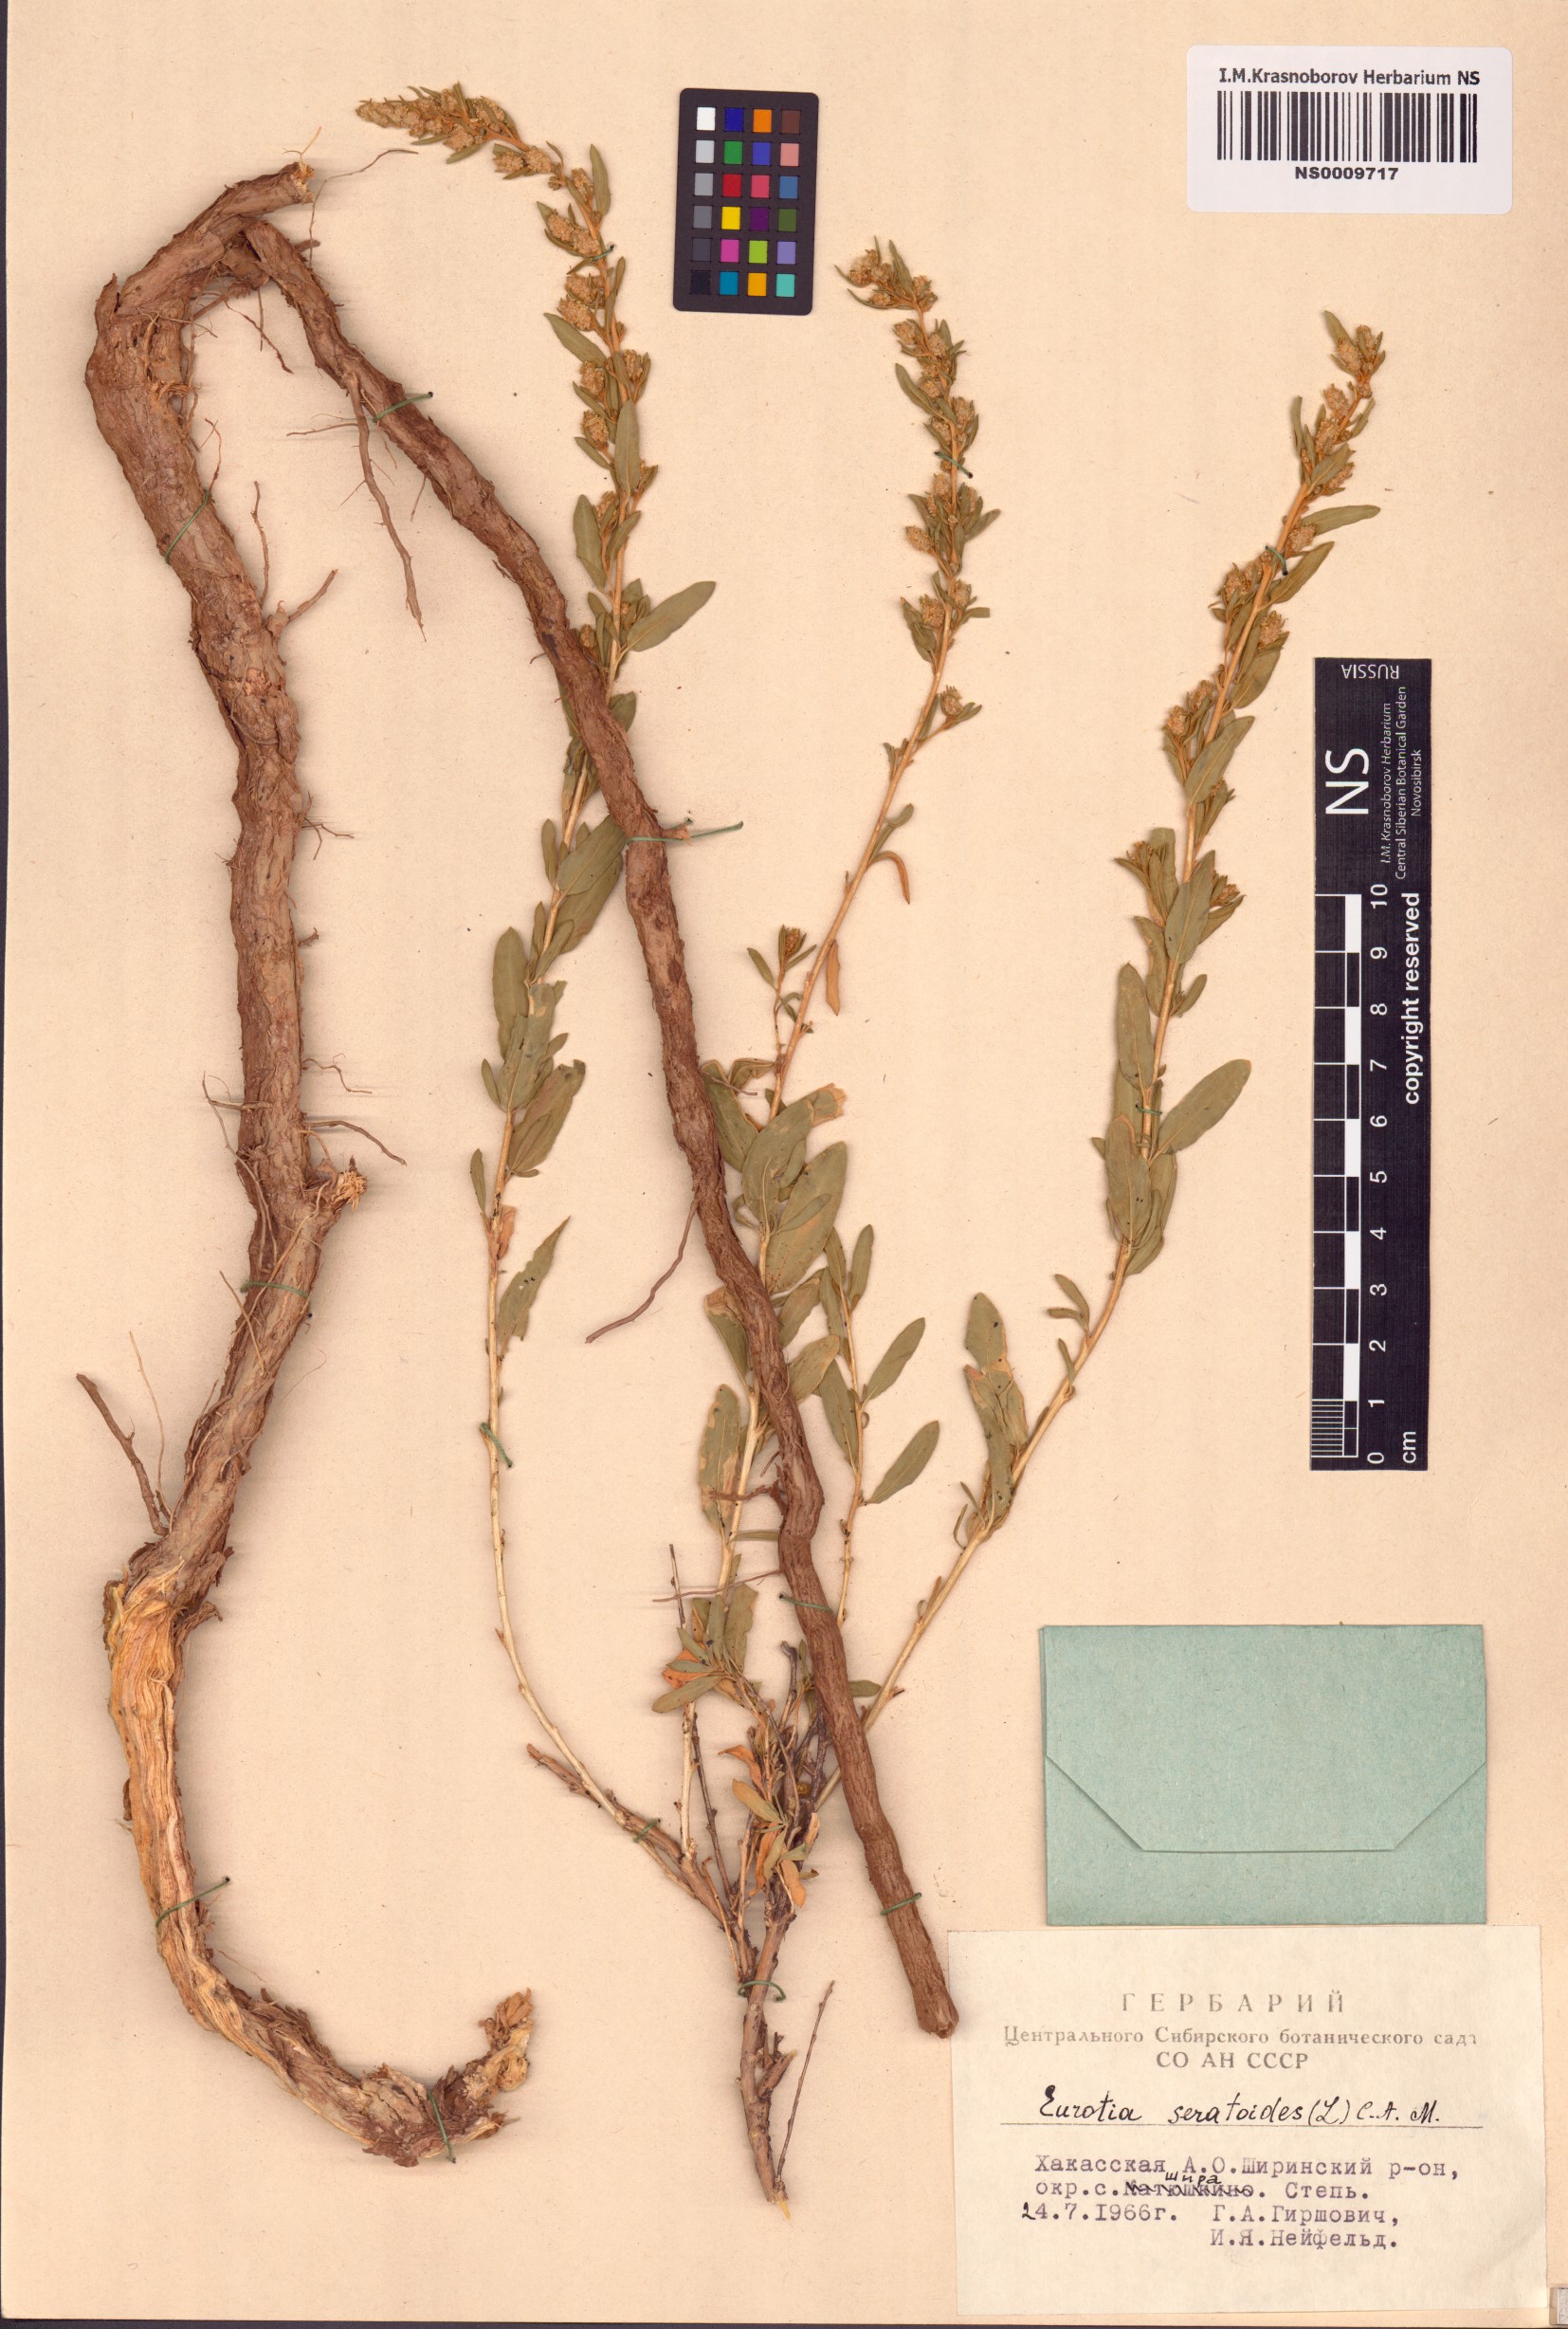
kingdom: Plantae
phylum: Tracheophyta
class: Magnoliopsida
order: Caryophyllales
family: Amaranthaceae
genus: Krascheninnikovia
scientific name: Krascheninnikovia ceratoides
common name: Pamirian winterfat
